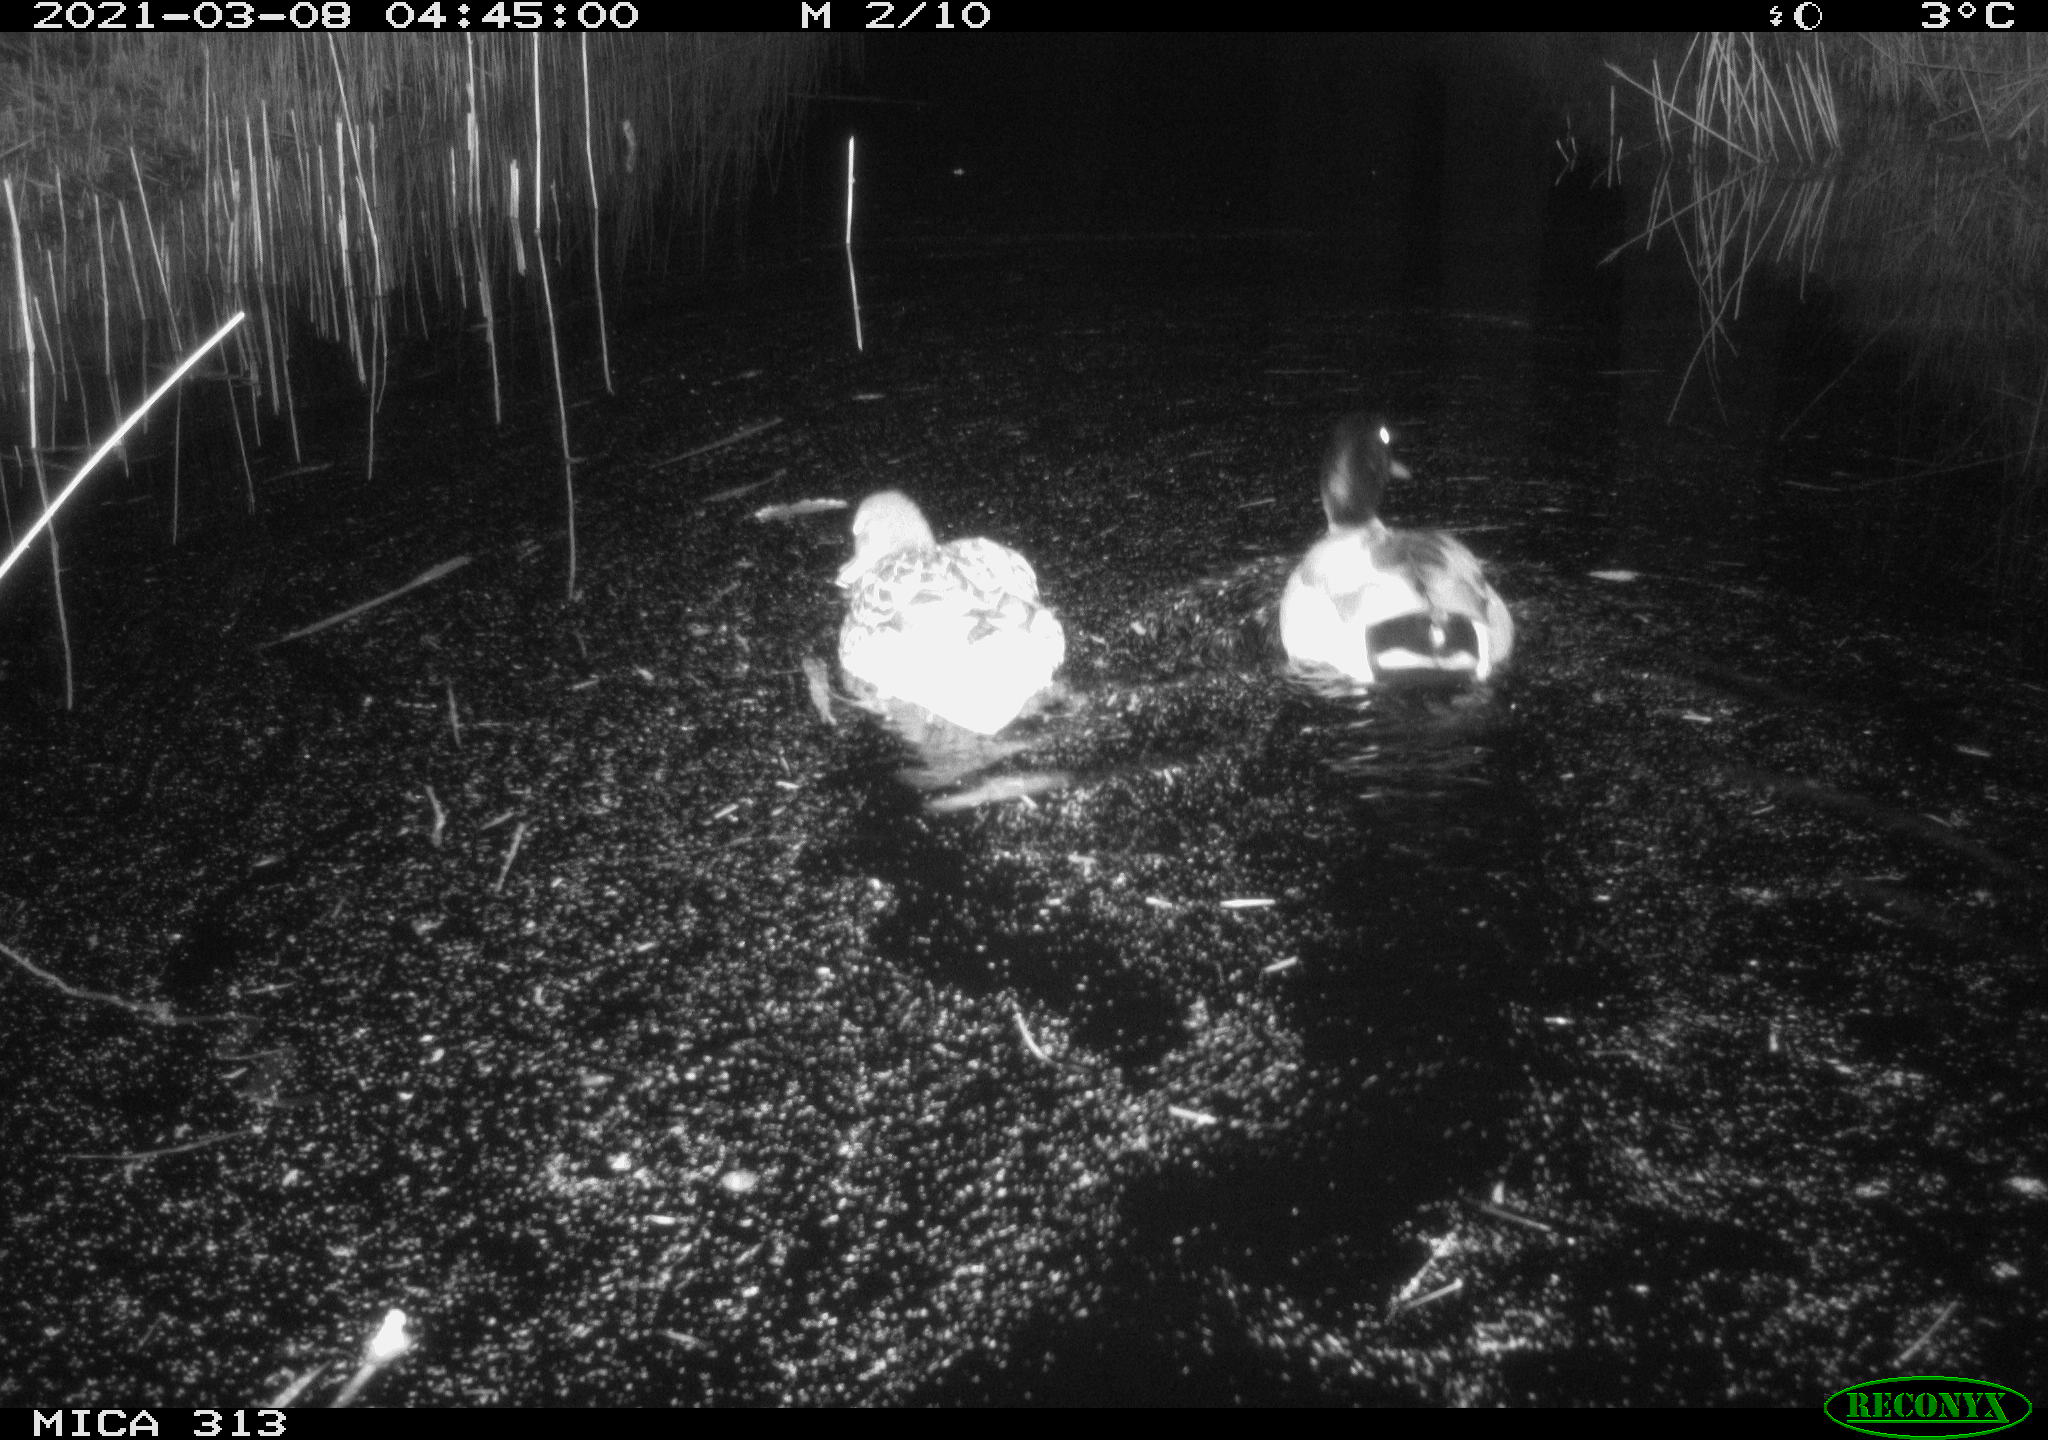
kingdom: Animalia
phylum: Chordata
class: Aves
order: Anseriformes
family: Anatidae
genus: Anas
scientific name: Anas platyrhynchos
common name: Mallard
